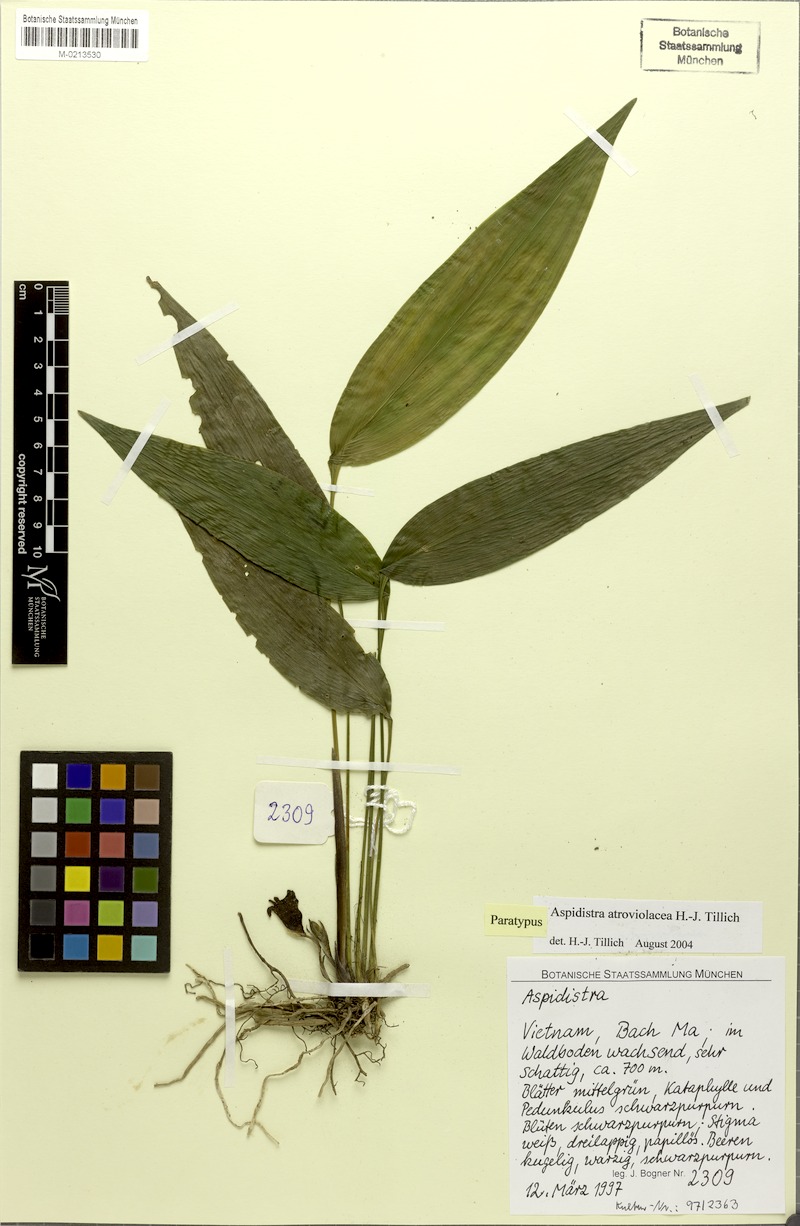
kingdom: Plantae
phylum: Tracheophyta
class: Liliopsida
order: Asparagales
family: Asparagaceae
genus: Aspidistra
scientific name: Aspidistra atroviolacea
